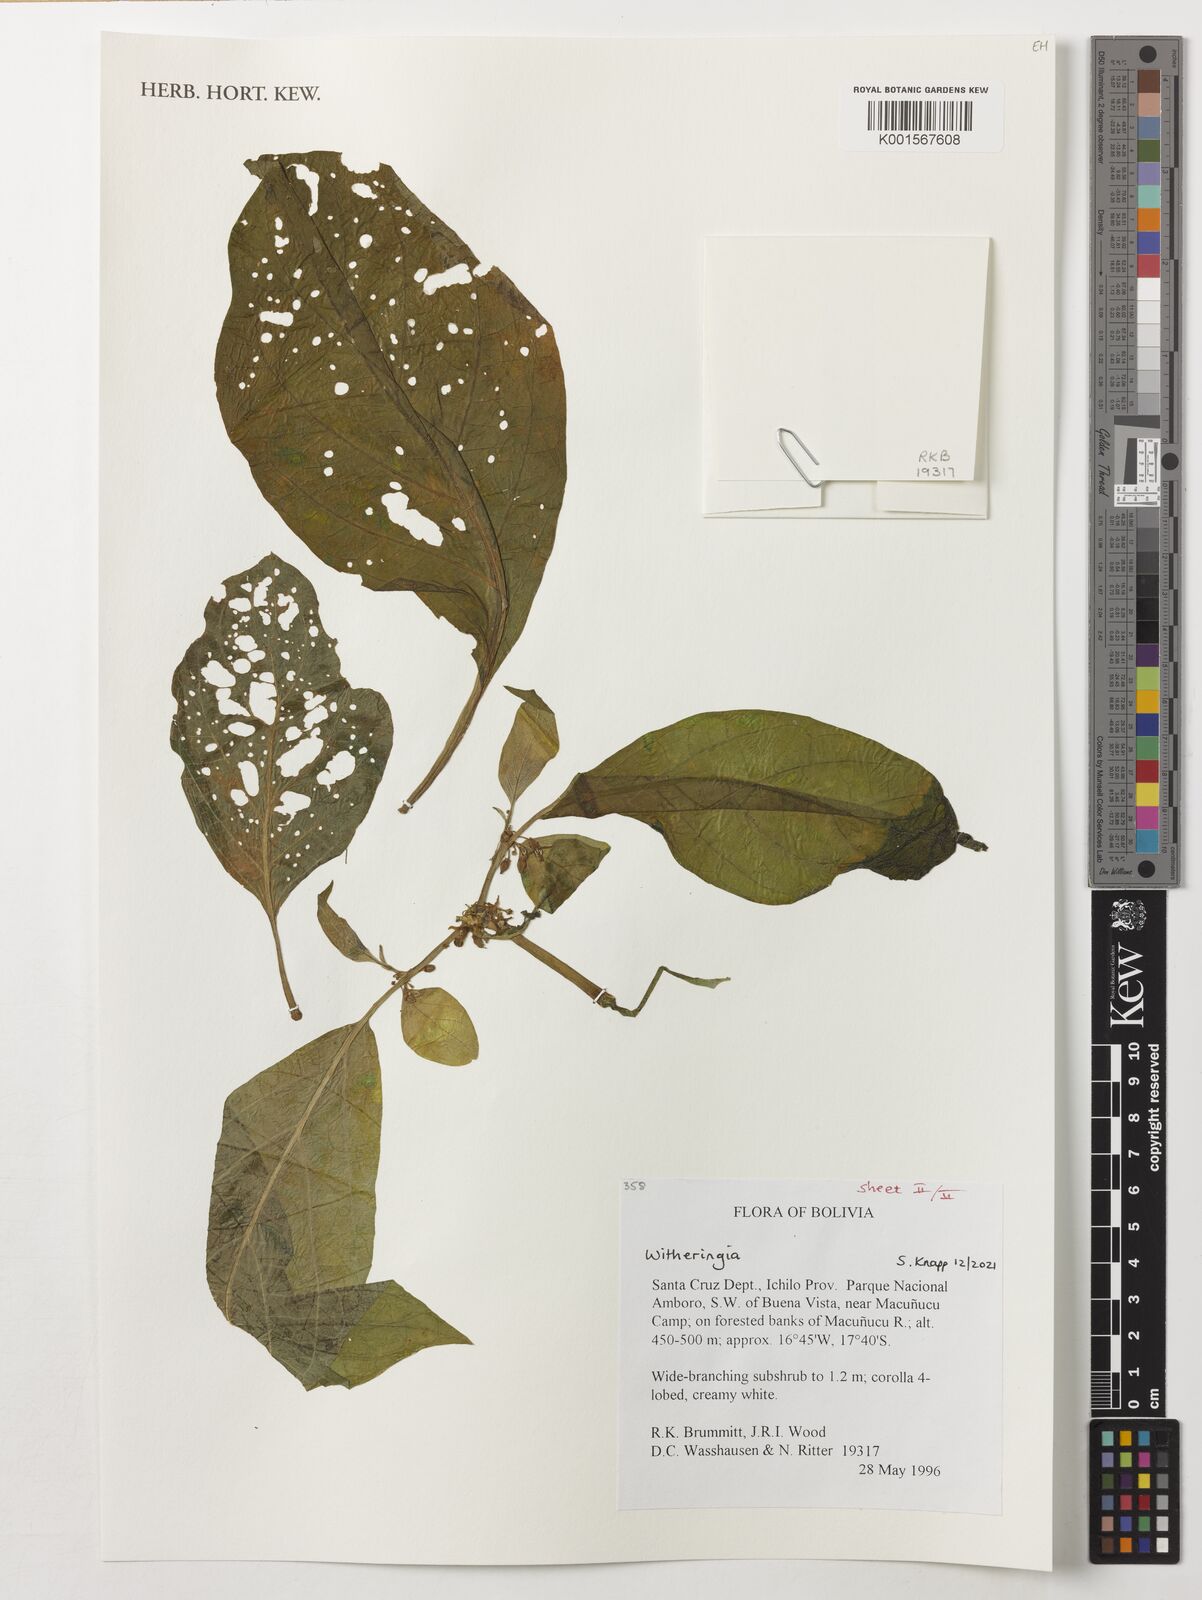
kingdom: Plantae
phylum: Tracheophyta
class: Magnoliopsida
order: Solanales
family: Solanaceae
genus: Witheringia
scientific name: Witheringia
